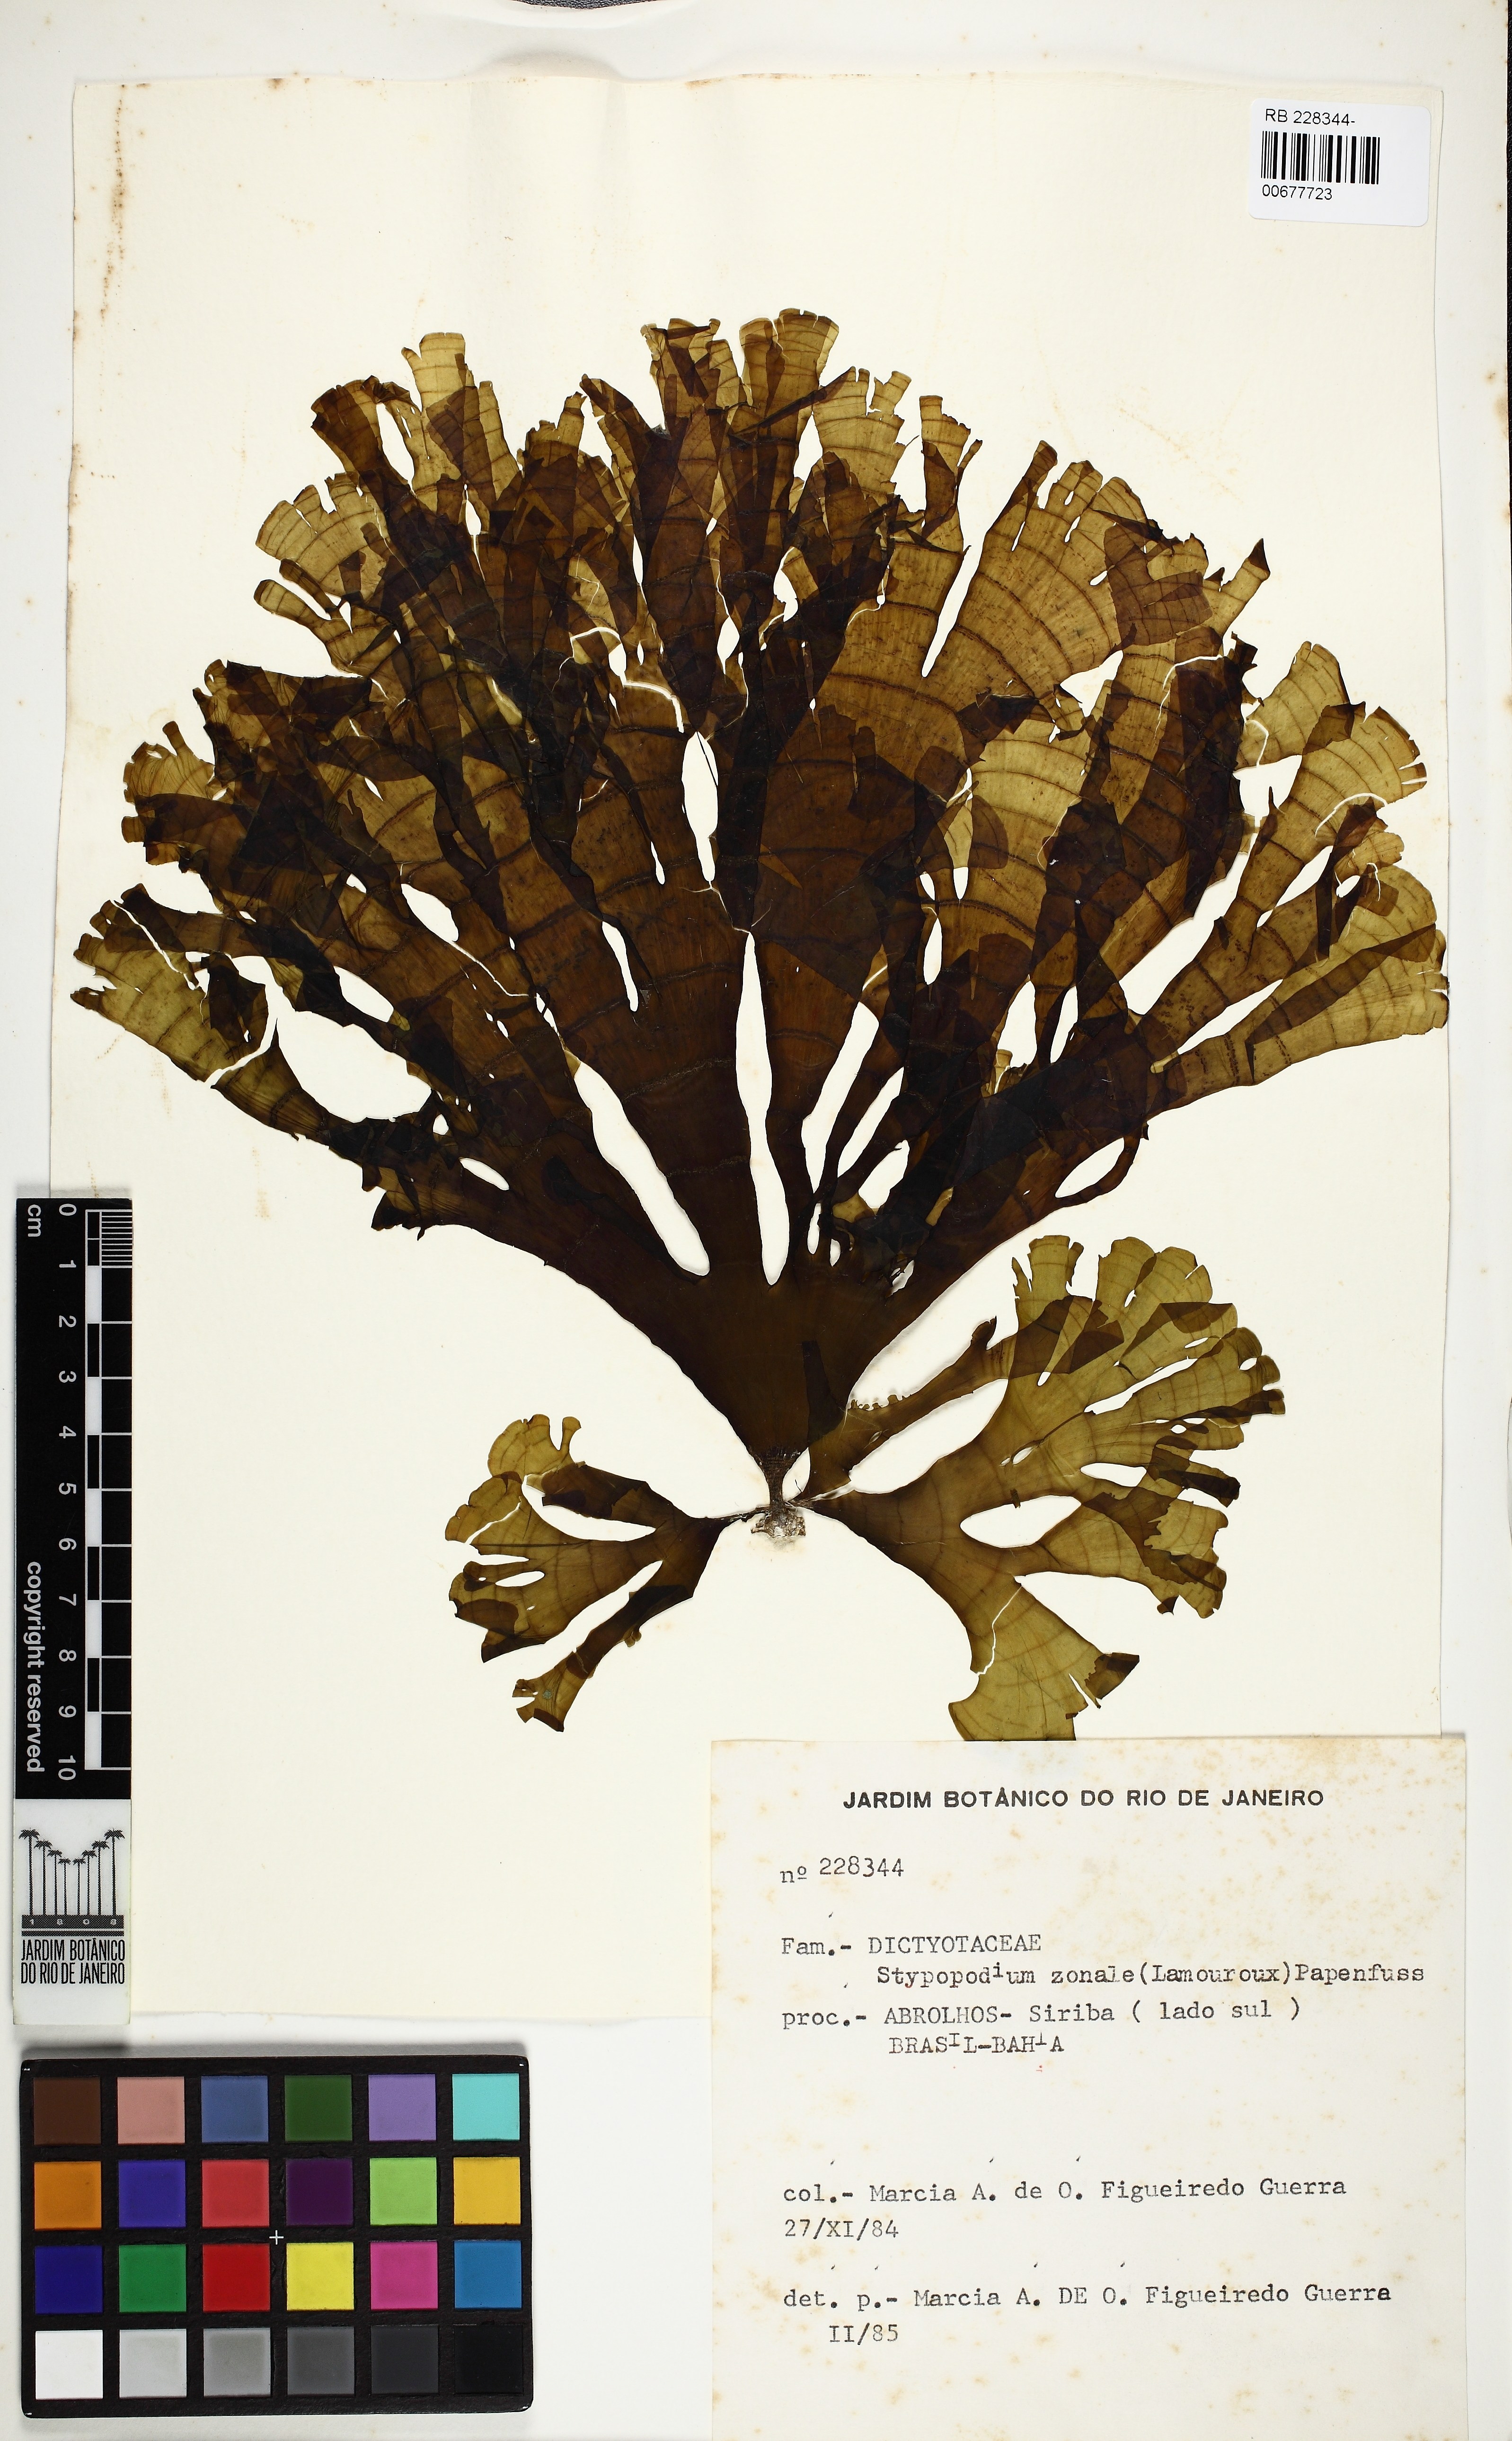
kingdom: Chromista
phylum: Ochrophyta
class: Phaeophyceae
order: Dictyotales
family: Dictyotaceae
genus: Stypopodium
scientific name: Stypopodium zonale
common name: Leafy flat-blade algae
